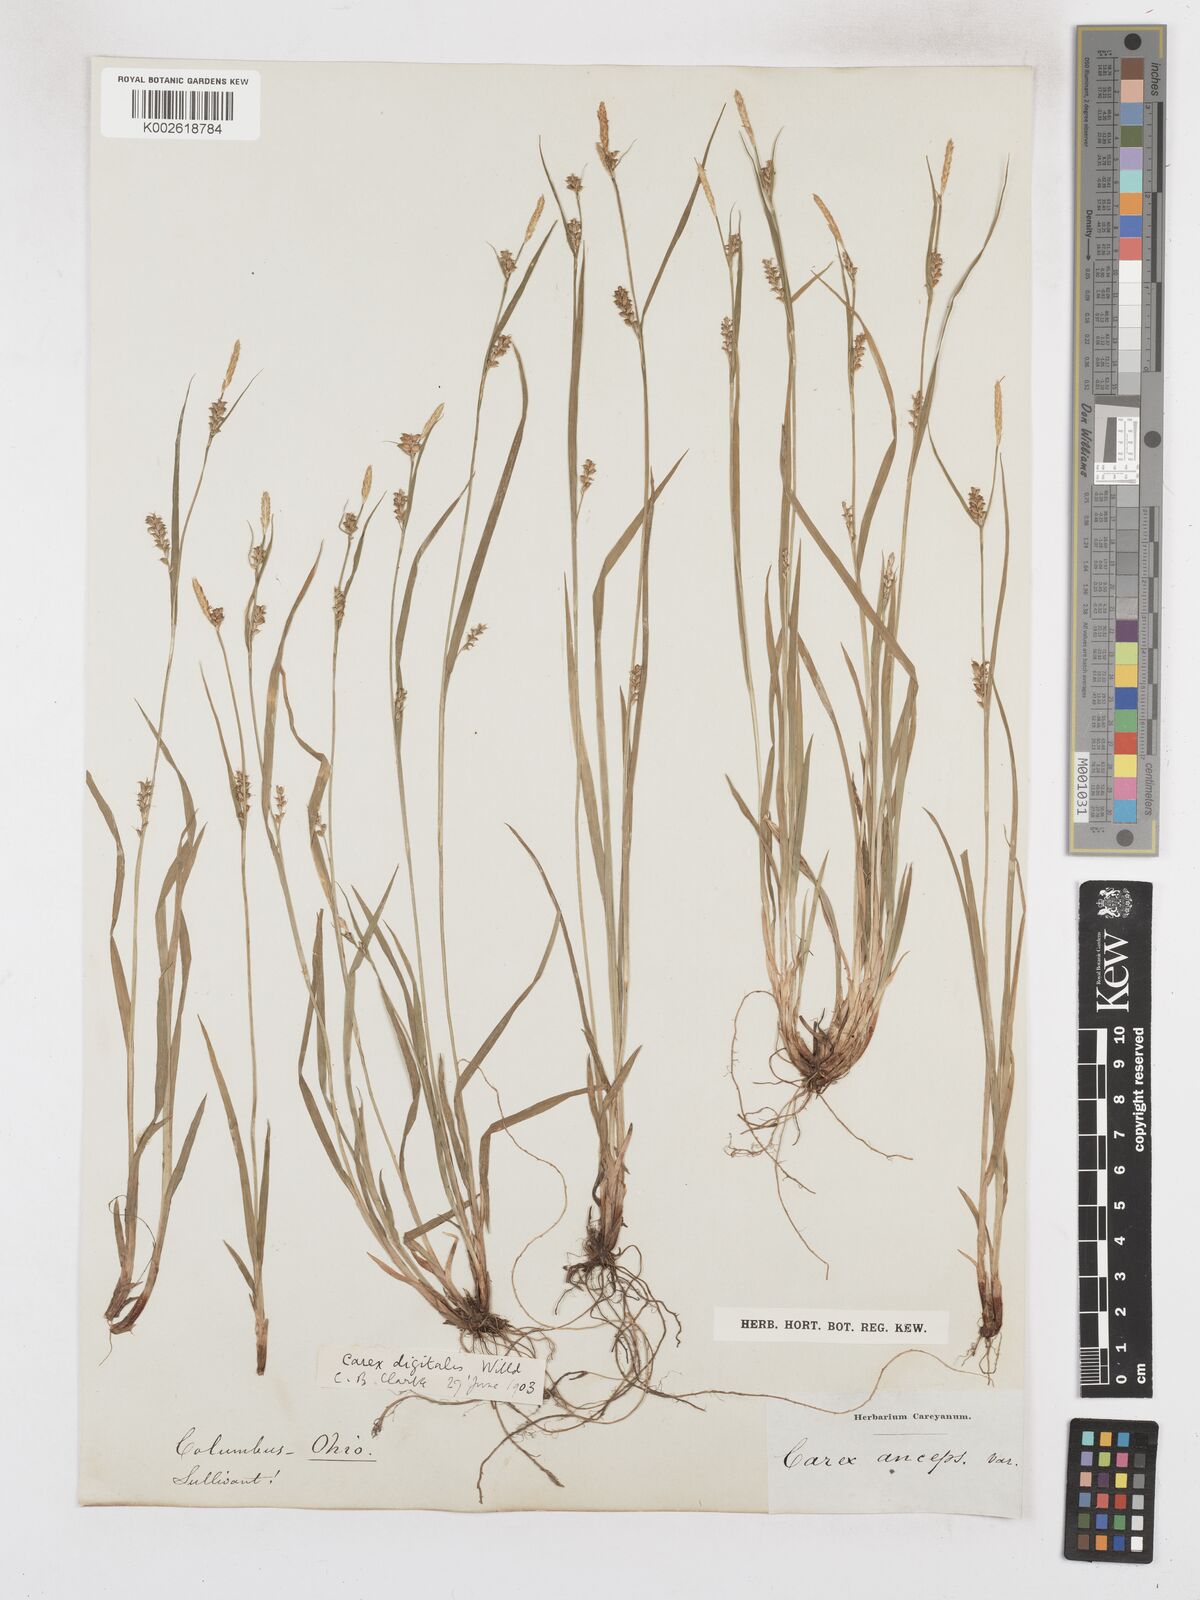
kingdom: Plantae
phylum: Tracheophyta
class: Liliopsida
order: Poales
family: Cyperaceae
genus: Carex
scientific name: Carex digitalis
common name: Slender wood sedge
